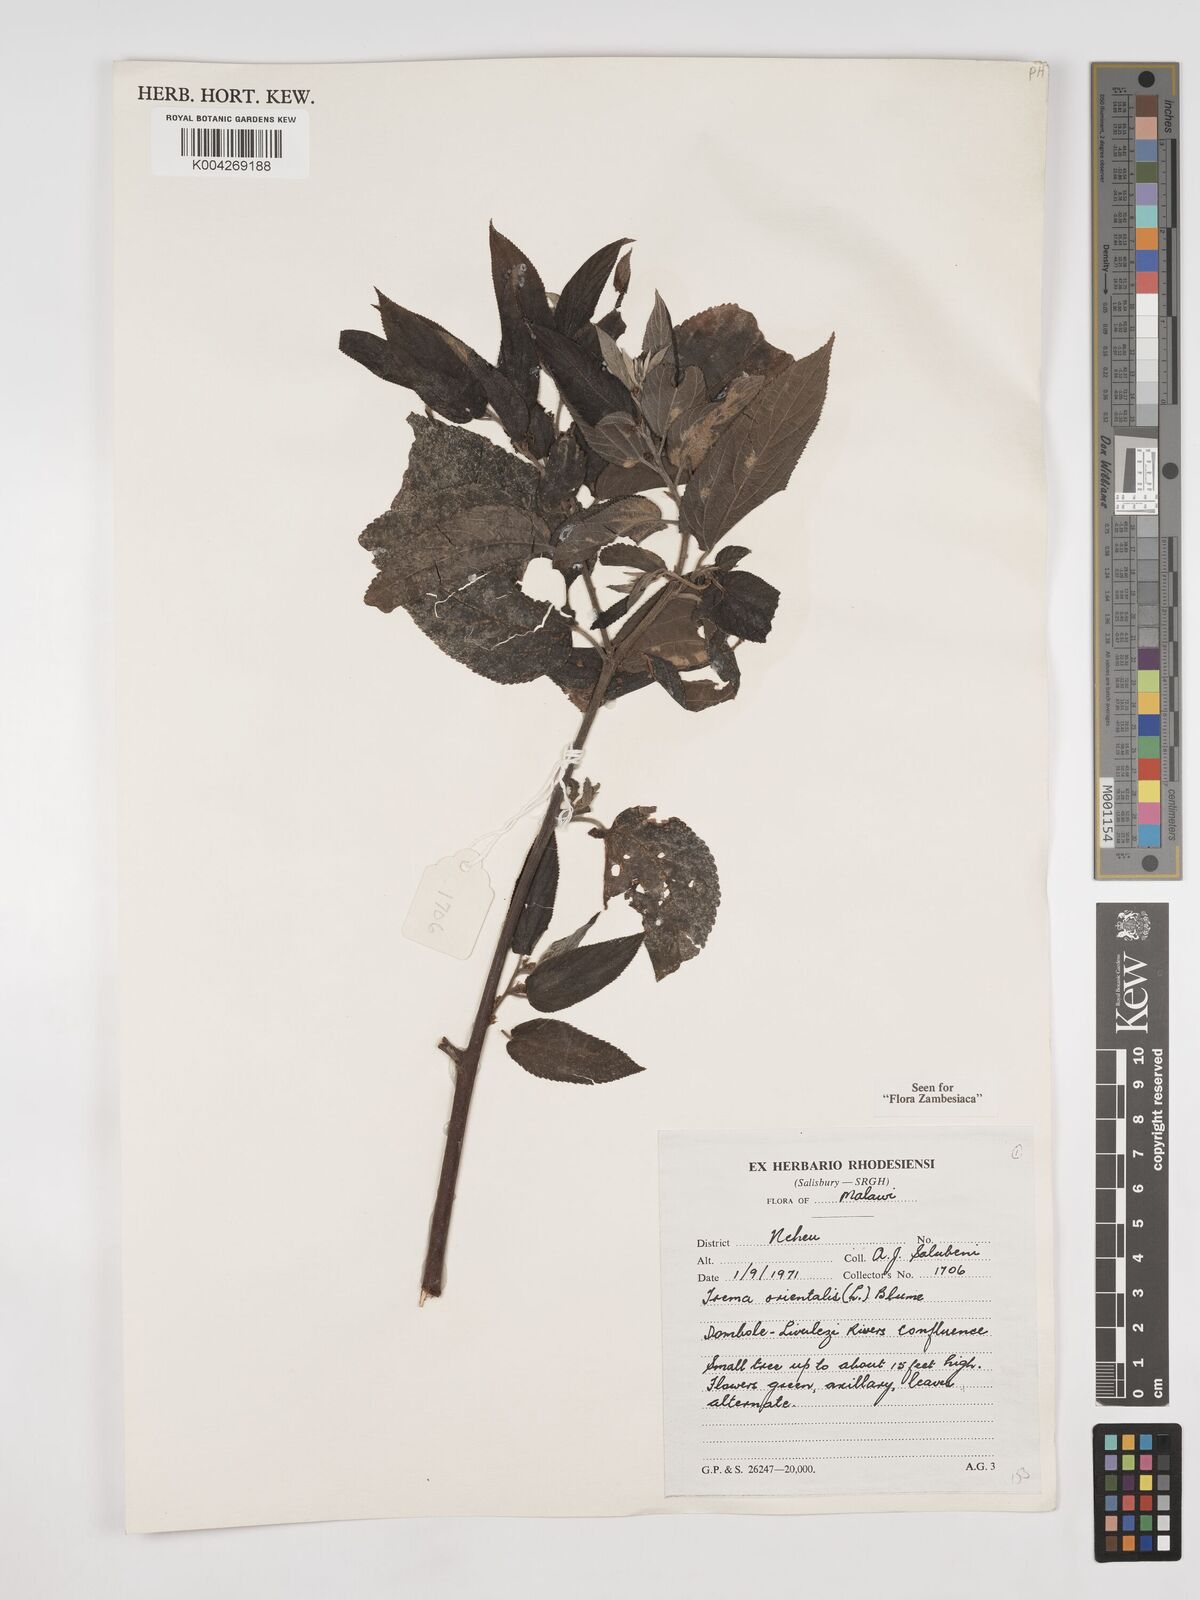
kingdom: Plantae
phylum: Tracheophyta
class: Magnoliopsida
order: Rosales
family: Cannabaceae
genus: Trema
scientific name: Trema orientale
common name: Indian charcoal tree
